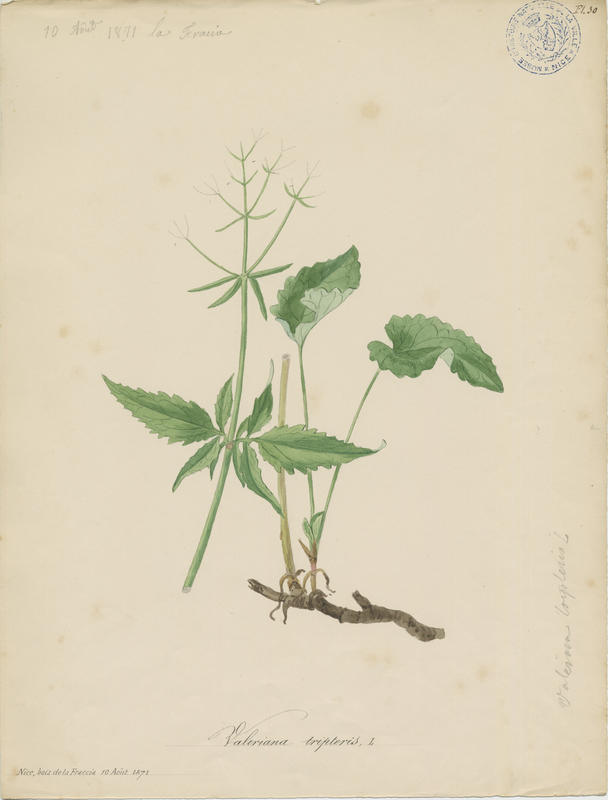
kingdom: Plantae
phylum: Tracheophyta
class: Magnoliopsida
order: Dipsacales
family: Caprifoliaceae
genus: Valeriana
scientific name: Valeriana tripteris
